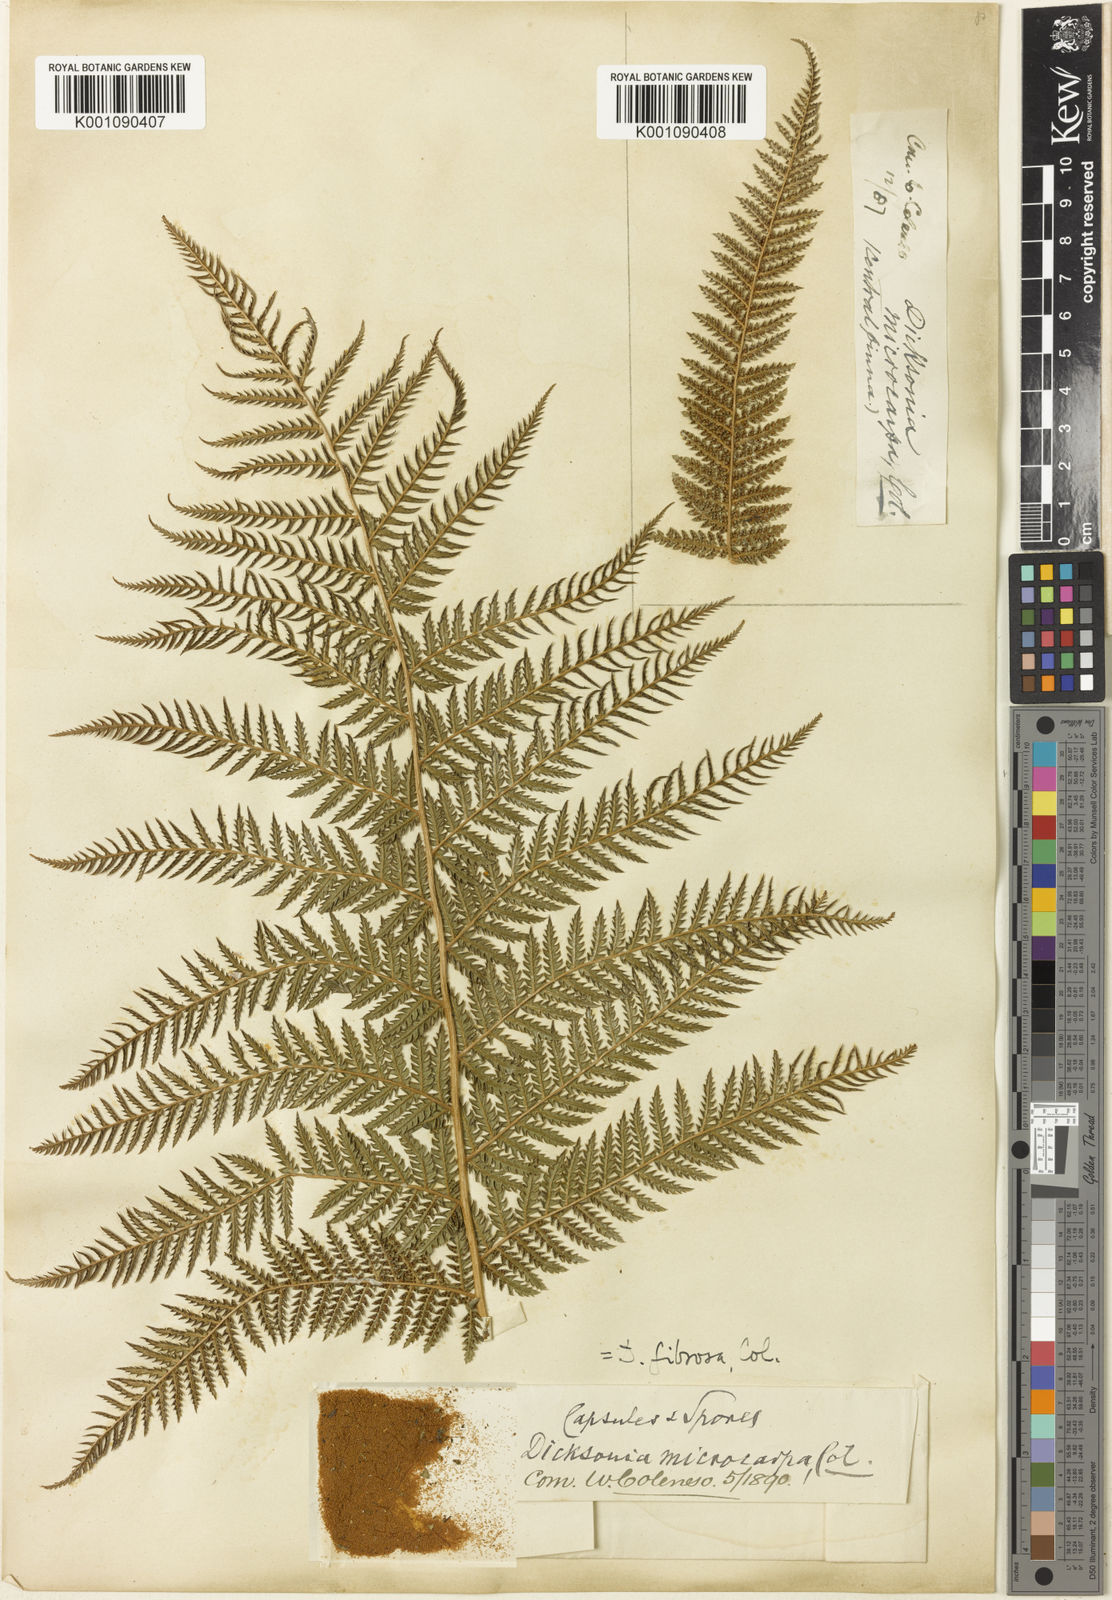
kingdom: Plantae
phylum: Tracheophyta
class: Polypodiopsida
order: Cyatheales
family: Dicksoniaceae
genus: Dicksonia
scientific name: Dicksonia fibrosa
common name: Golden tree fern
